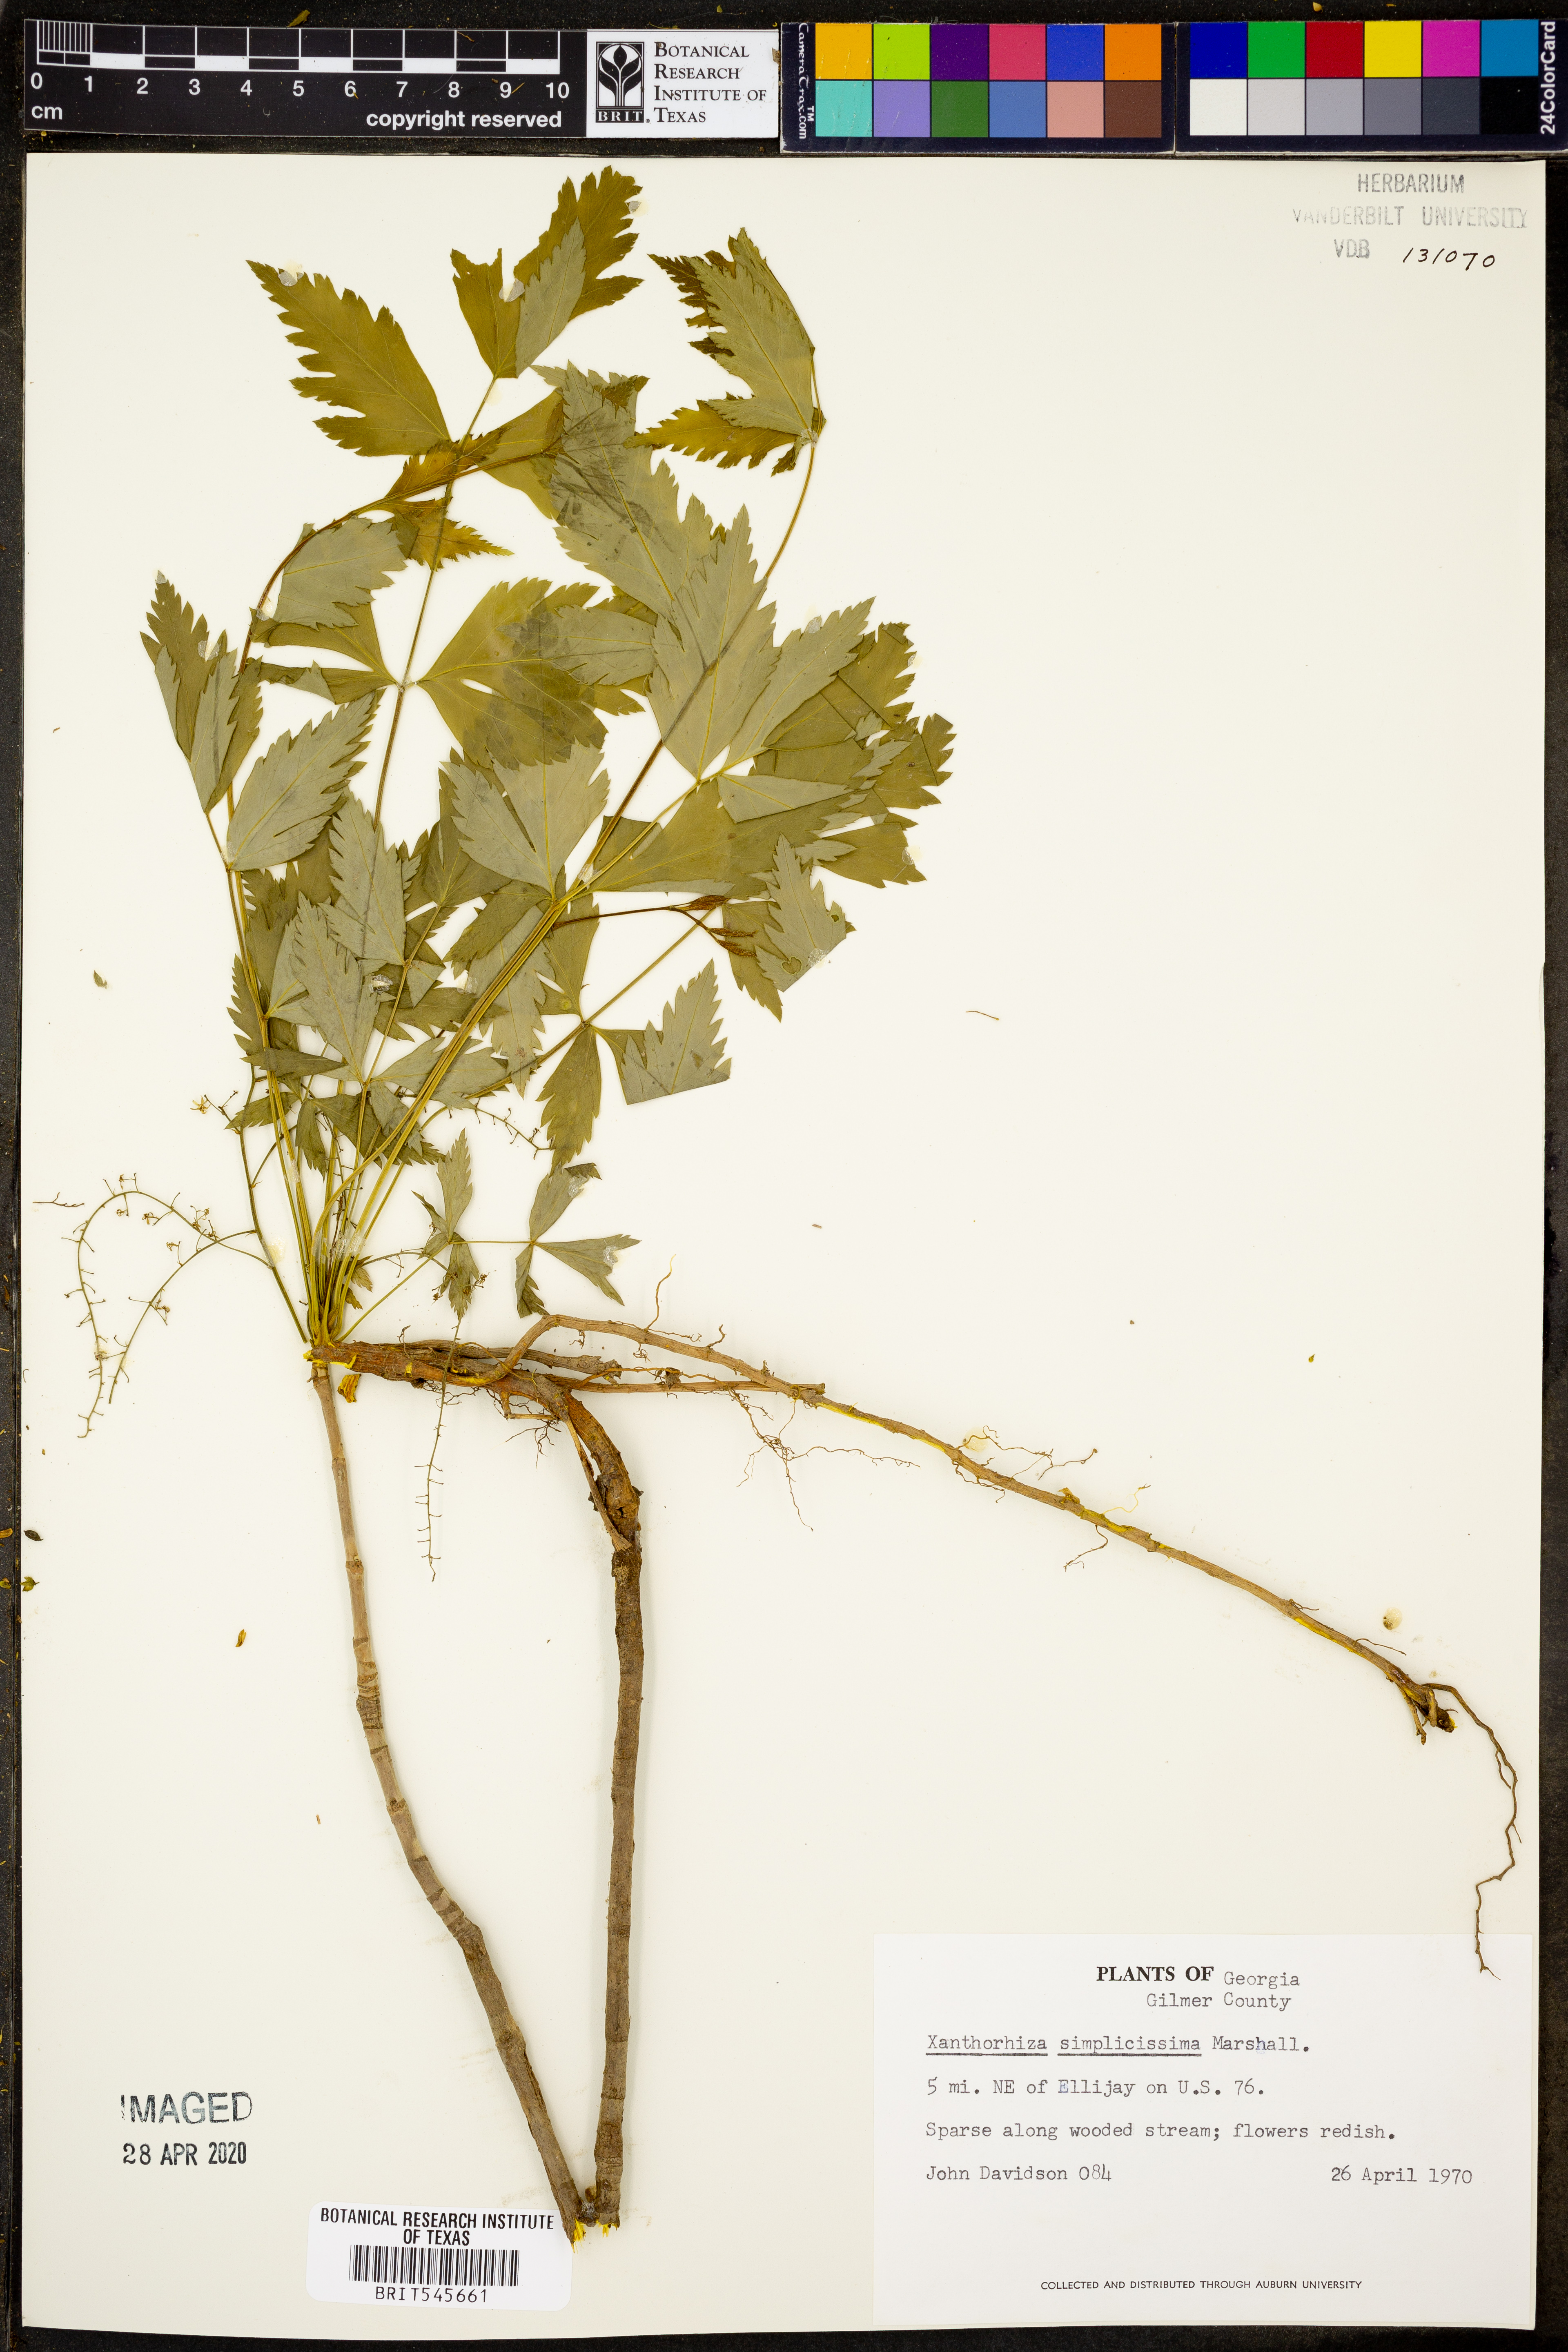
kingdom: Plantae
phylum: Tracheophyta
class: Magnoliopsida
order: Ranunculales
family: Ranunculaceae
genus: Xanthorhiza
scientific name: Xanthorhiza simplicissima
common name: Yellowroot
